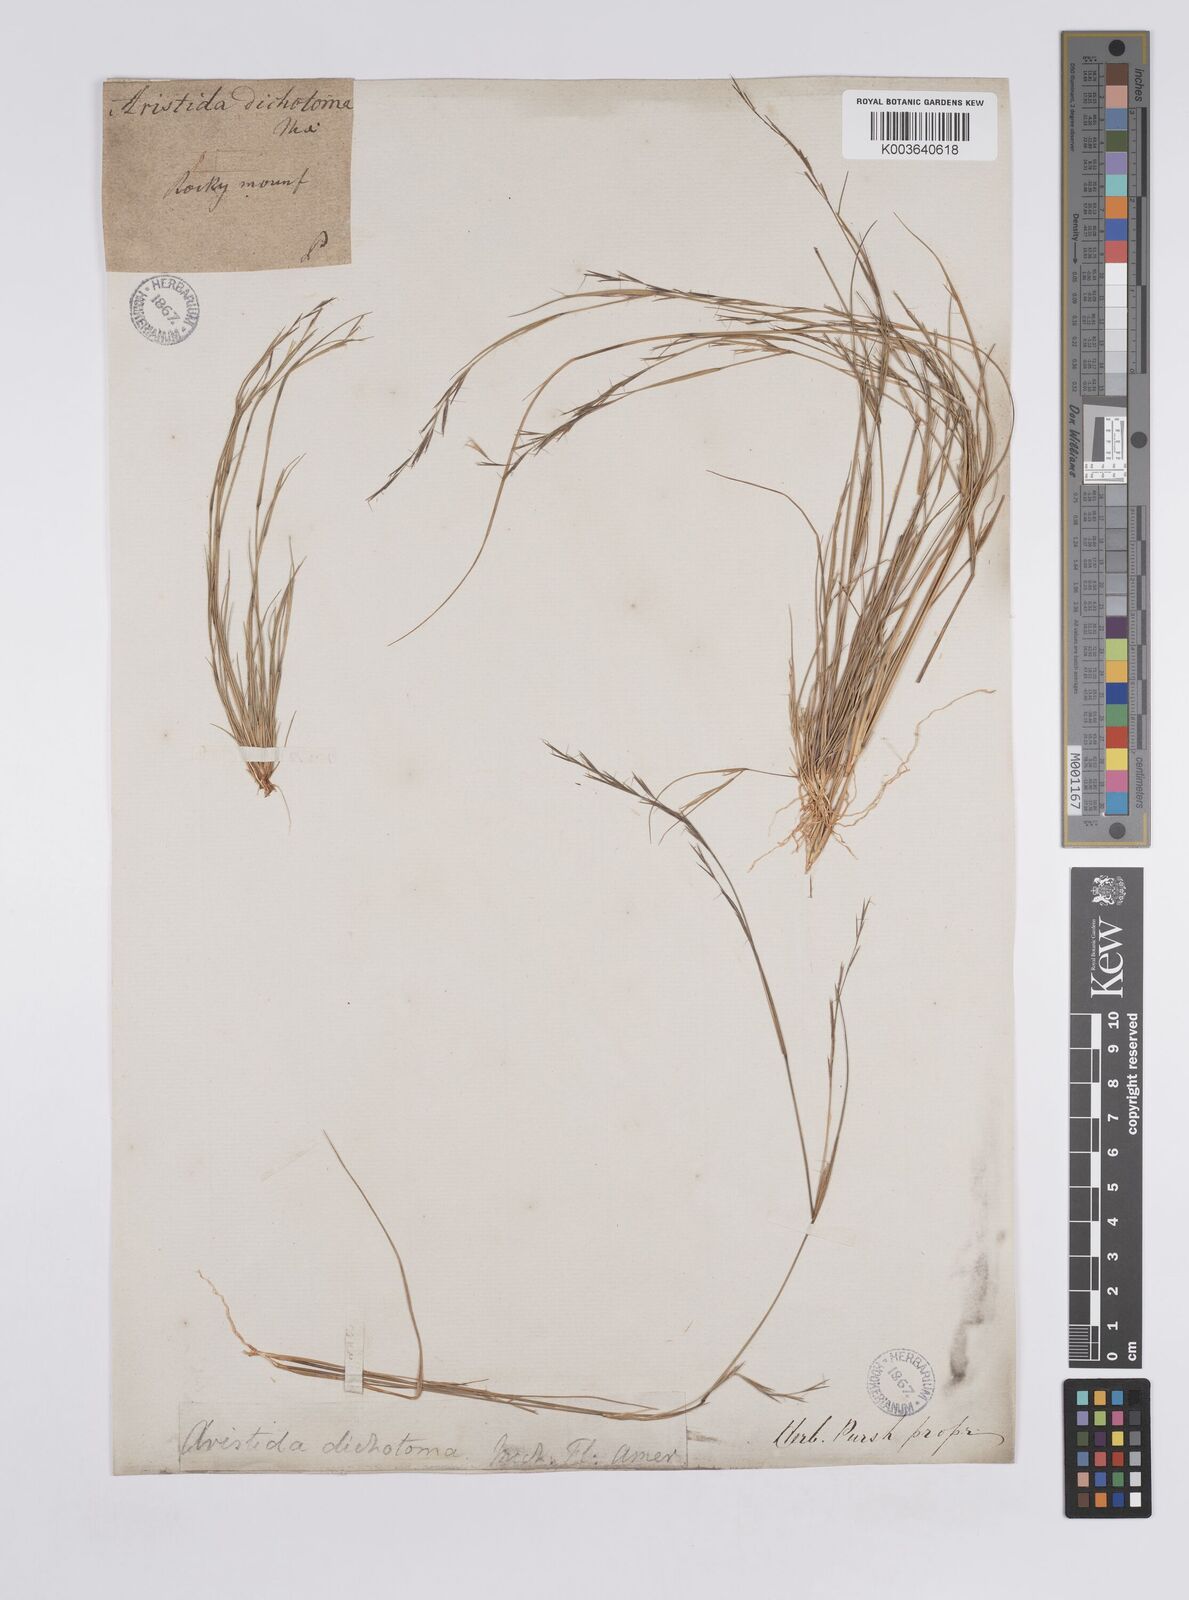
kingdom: Plantae
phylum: Tracheophyta
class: Liliopsida
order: Poales
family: Poaceae
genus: Aristida
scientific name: Aristida dichotoma
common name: Churchmouse three-awn
